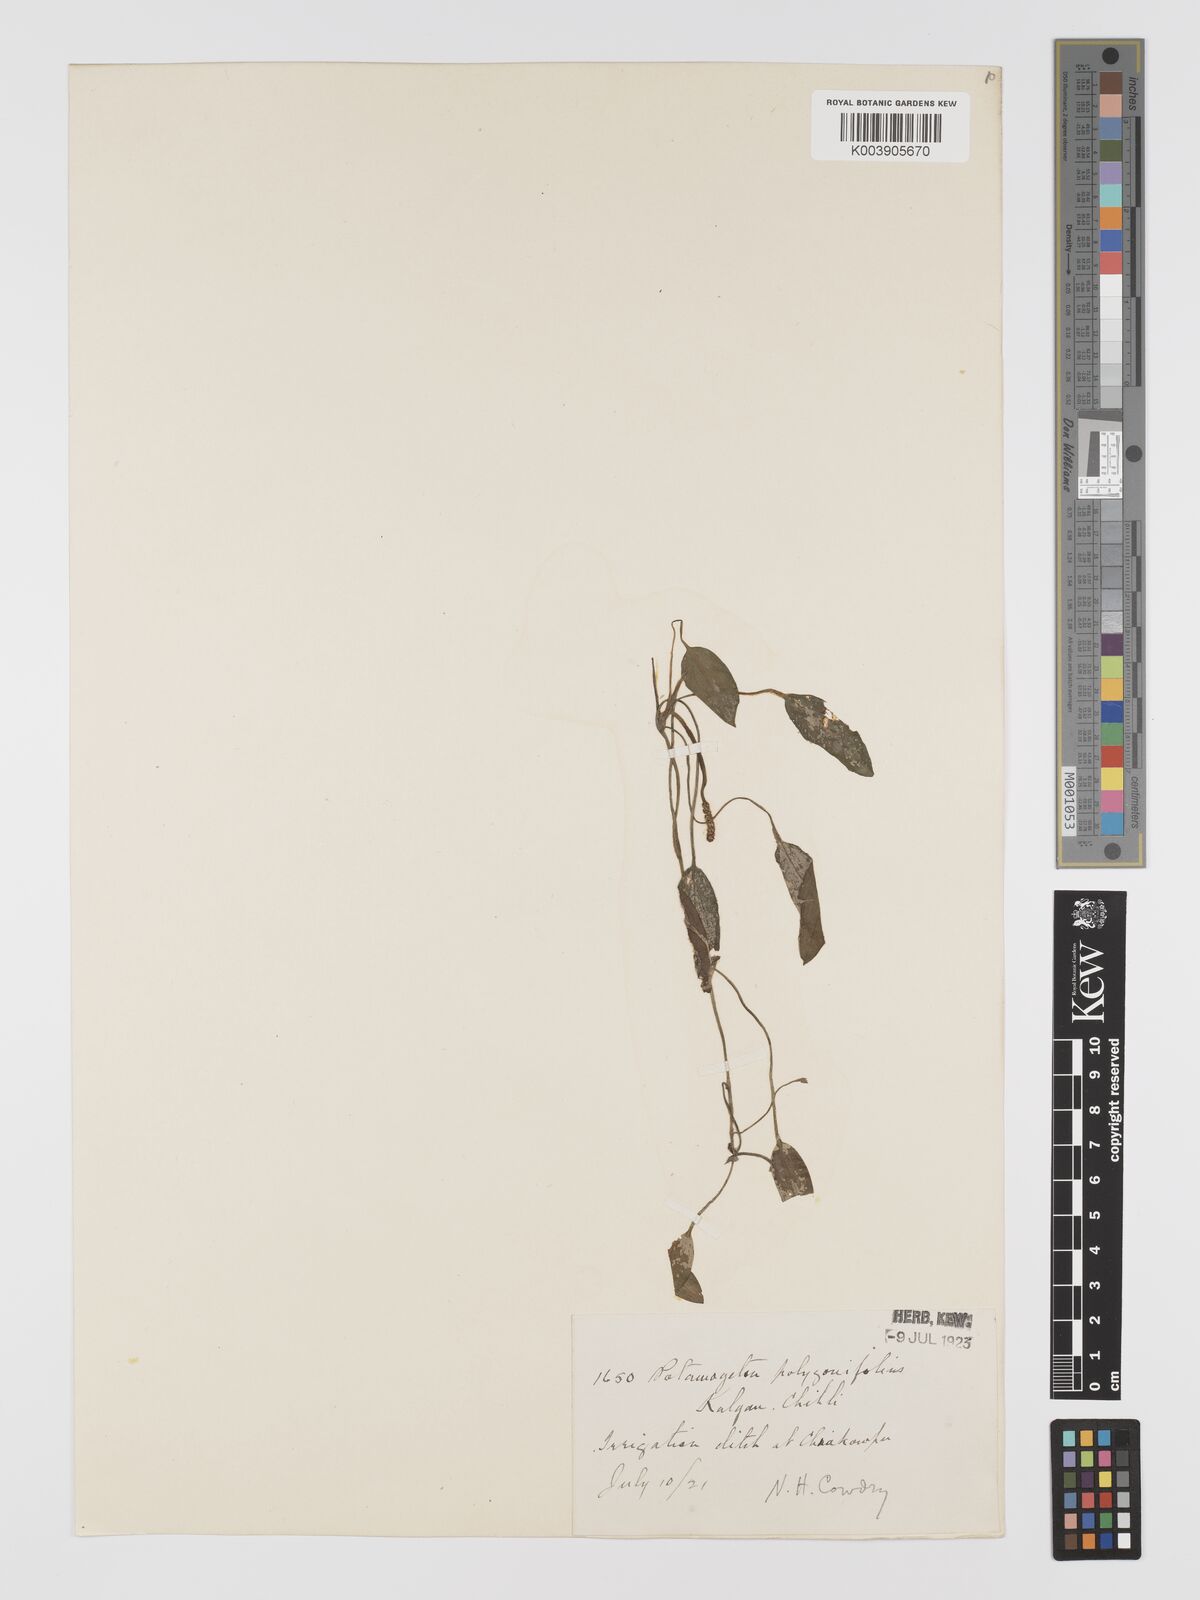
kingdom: Plantae
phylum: Tracheophyta
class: Liliopsida
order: Alismatales
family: Potamogetonaceae
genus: Potamogeton
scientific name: Potamogeton distinctus
